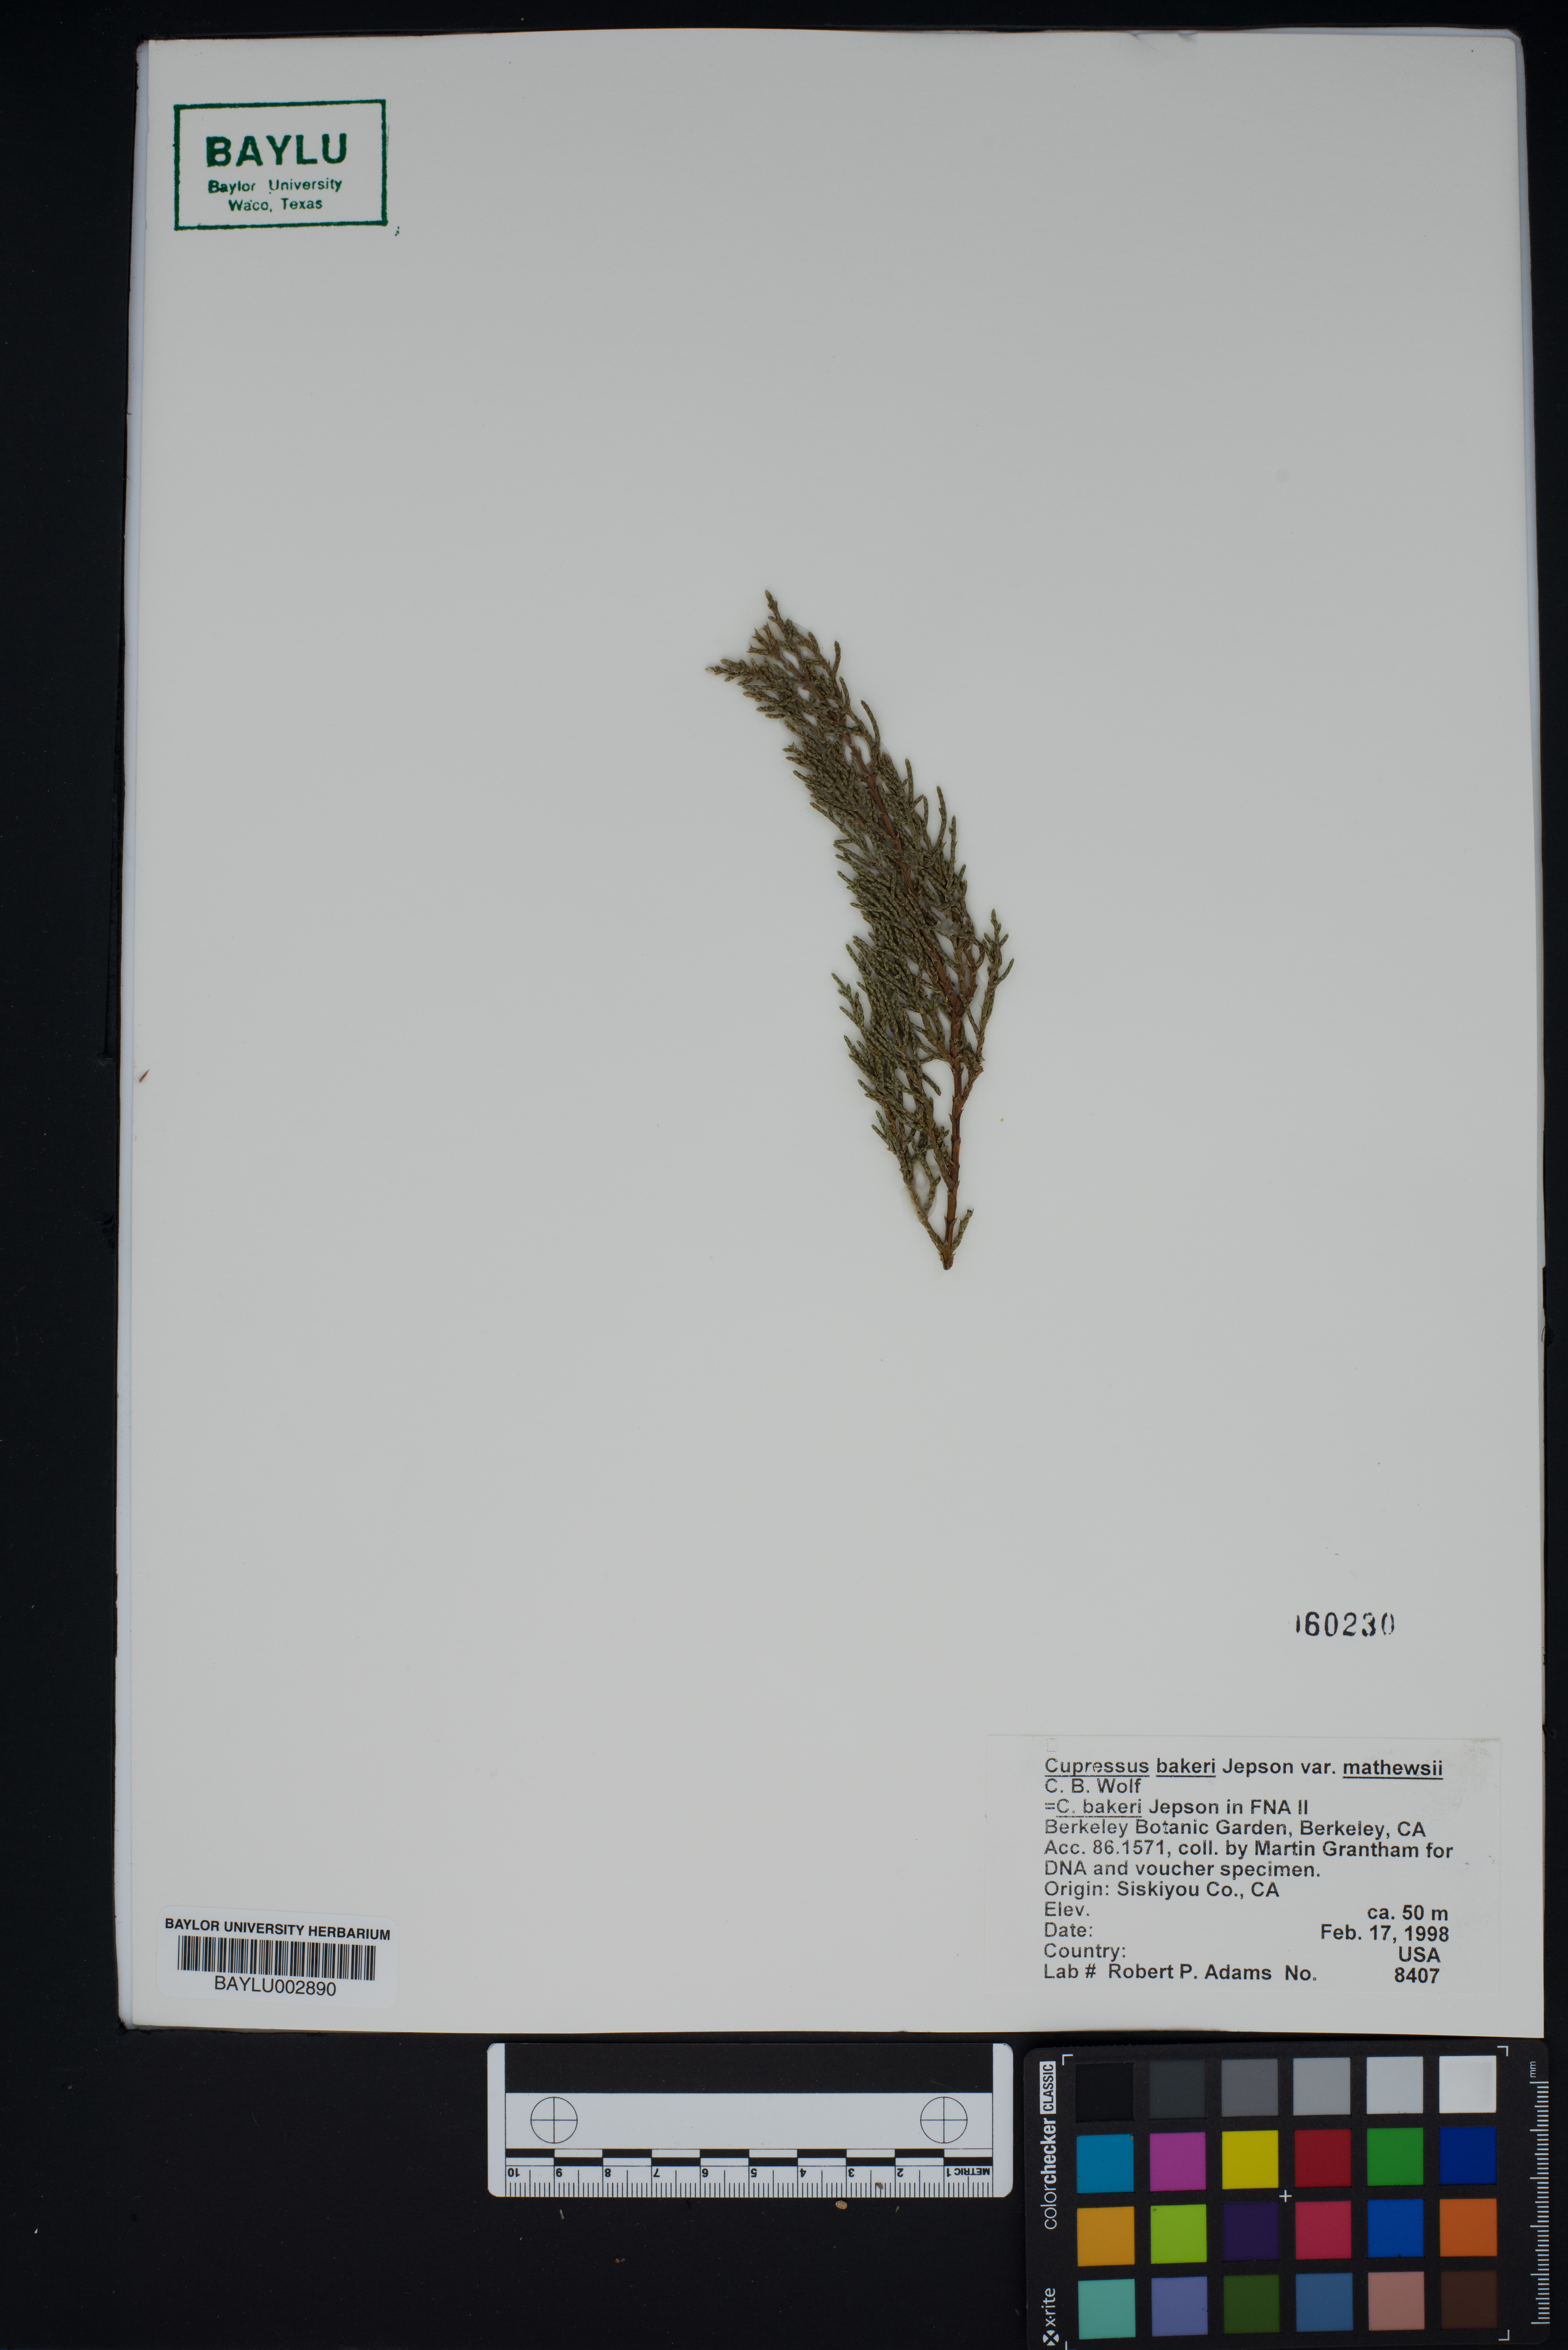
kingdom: Plantae
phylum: Tracheophyta
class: Pinopsida
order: Pinales
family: Cupressaceae
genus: Cupressus
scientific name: Cupressus bakeri
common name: Baker cypress
